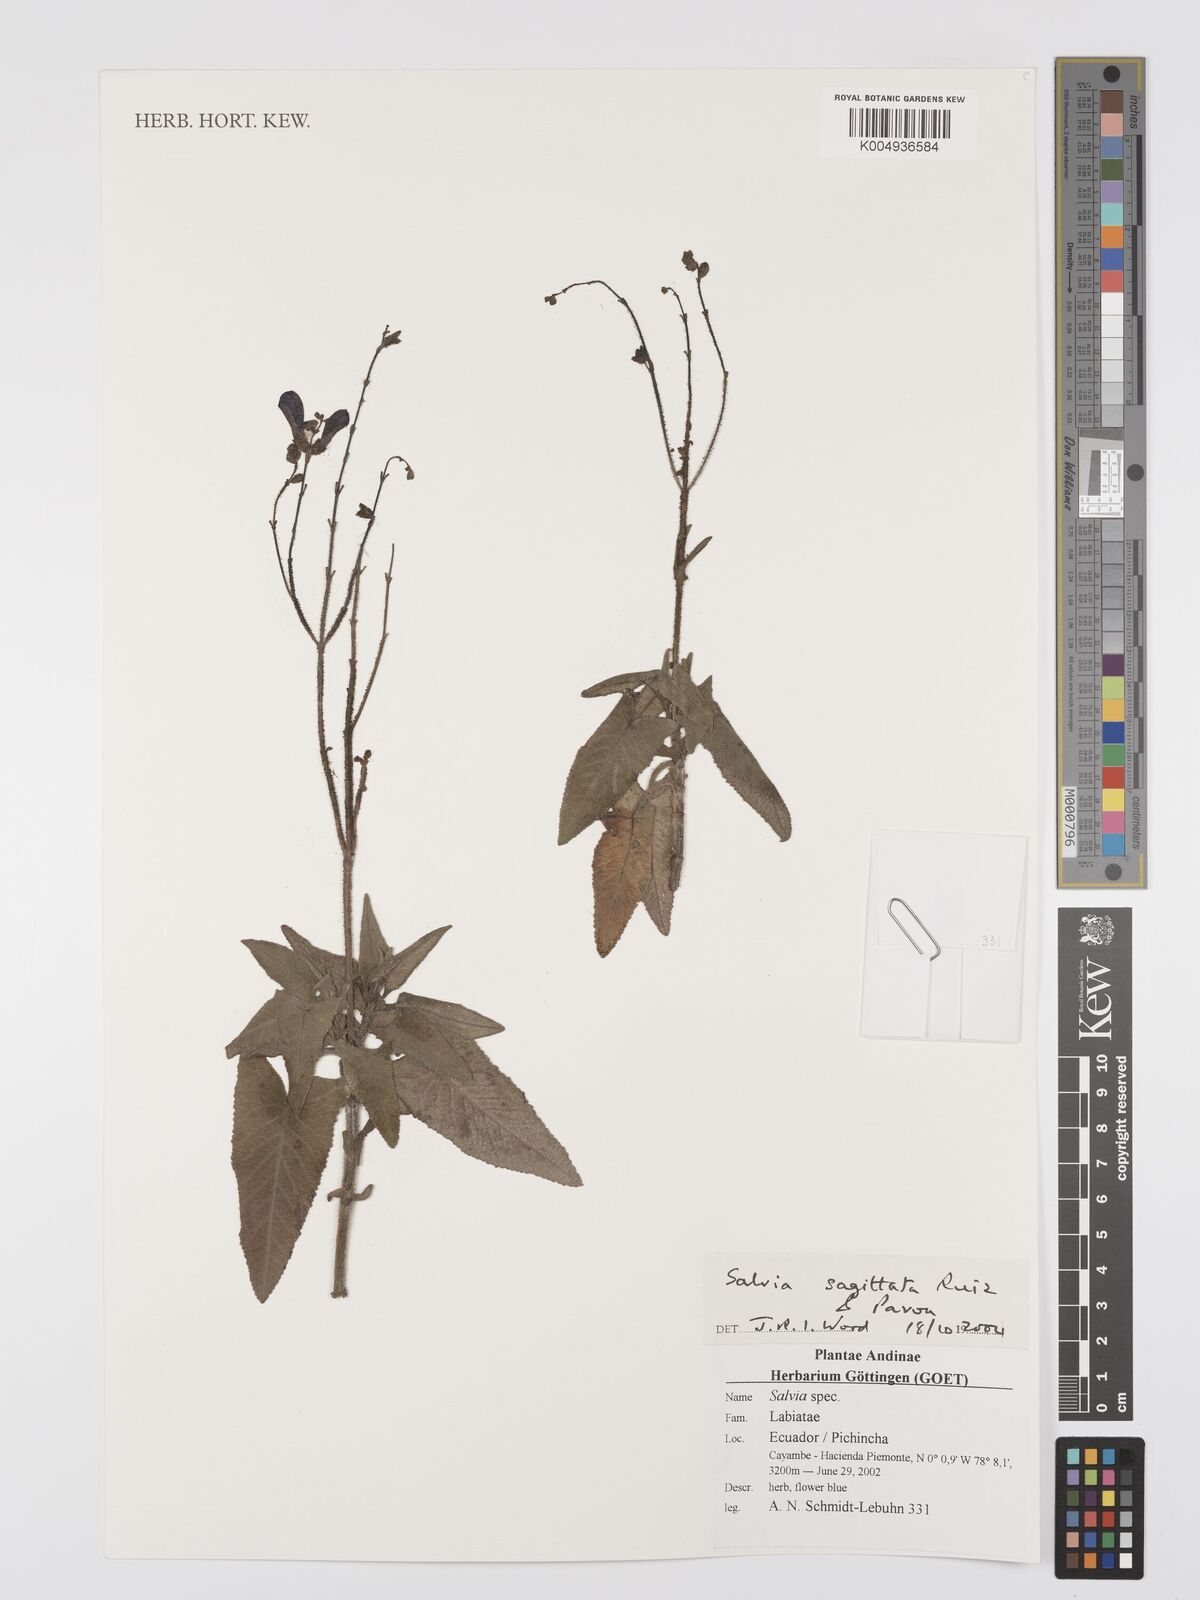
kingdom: Plantae
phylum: Tracheophyta
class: Magnoliopsida
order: Lamiales
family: Lamiaceae
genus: Salvia
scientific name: Salvia sagittata
